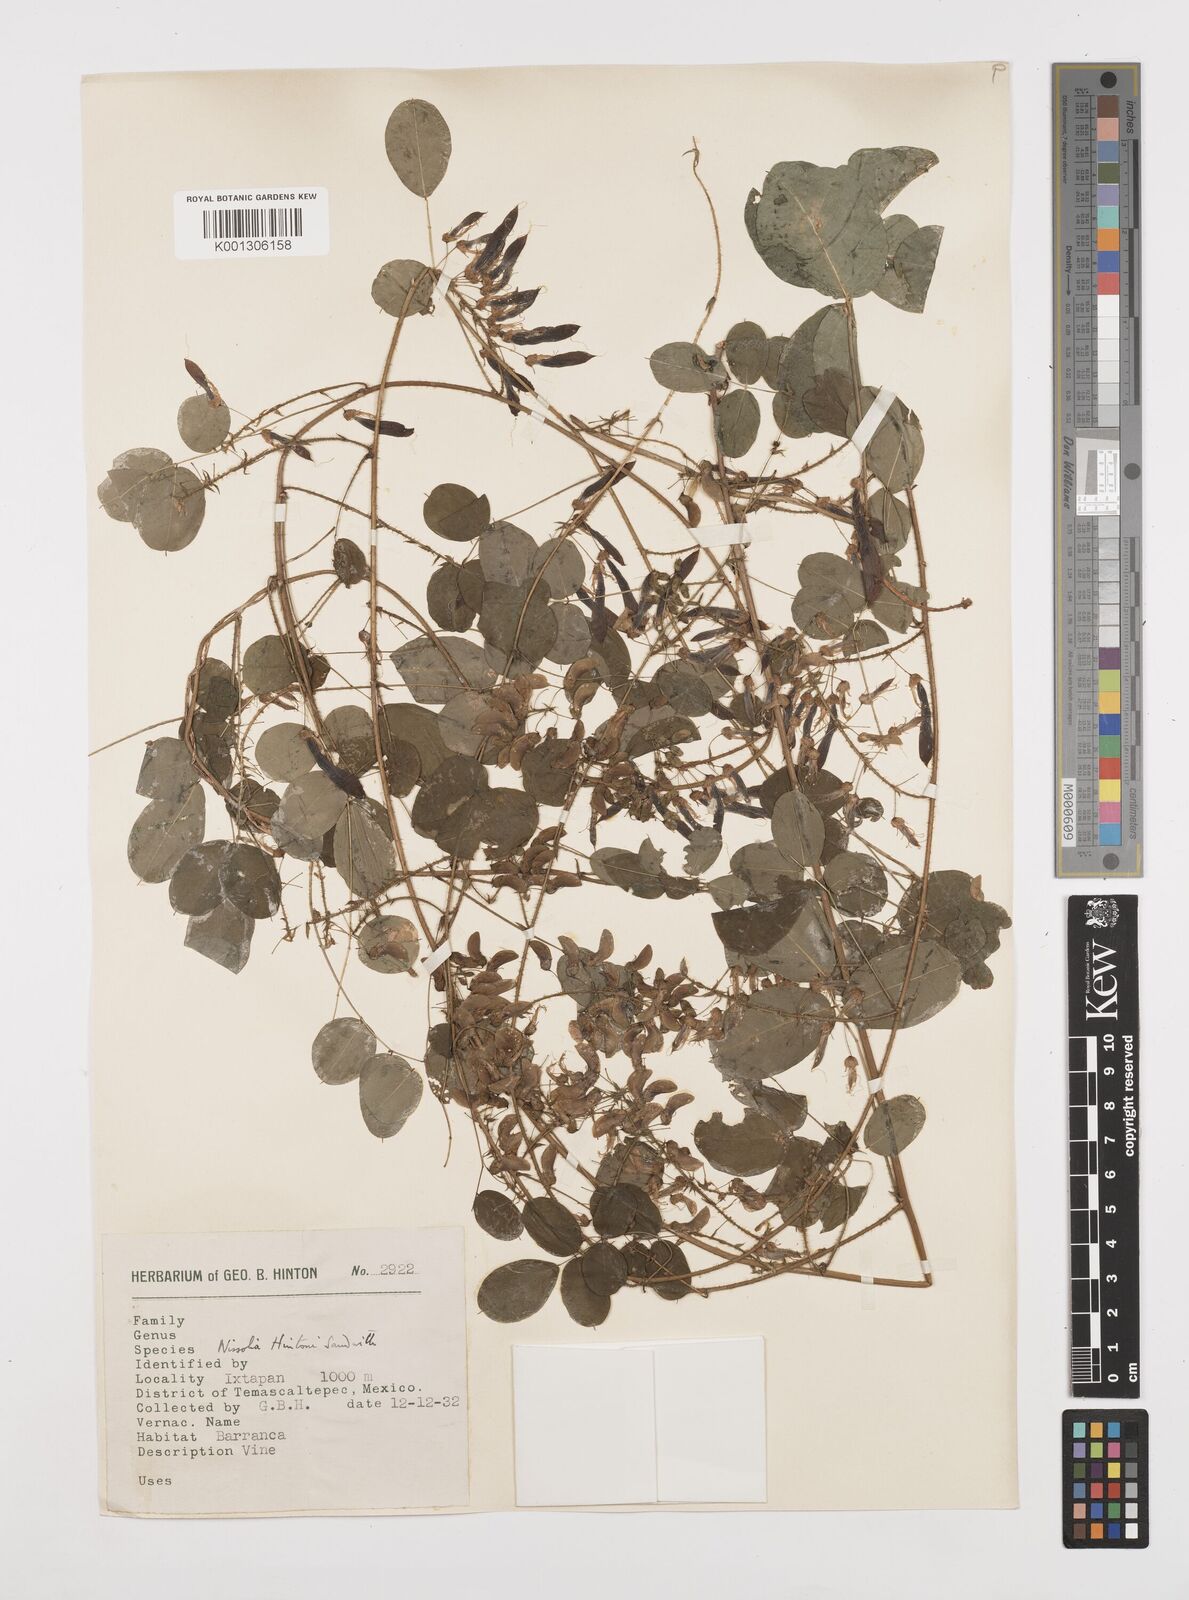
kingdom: Plantae
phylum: Tracheophyta
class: Magnoliopsida
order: Fabales
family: Fabaceae
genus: Nissolia
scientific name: Nissolia hintonii
